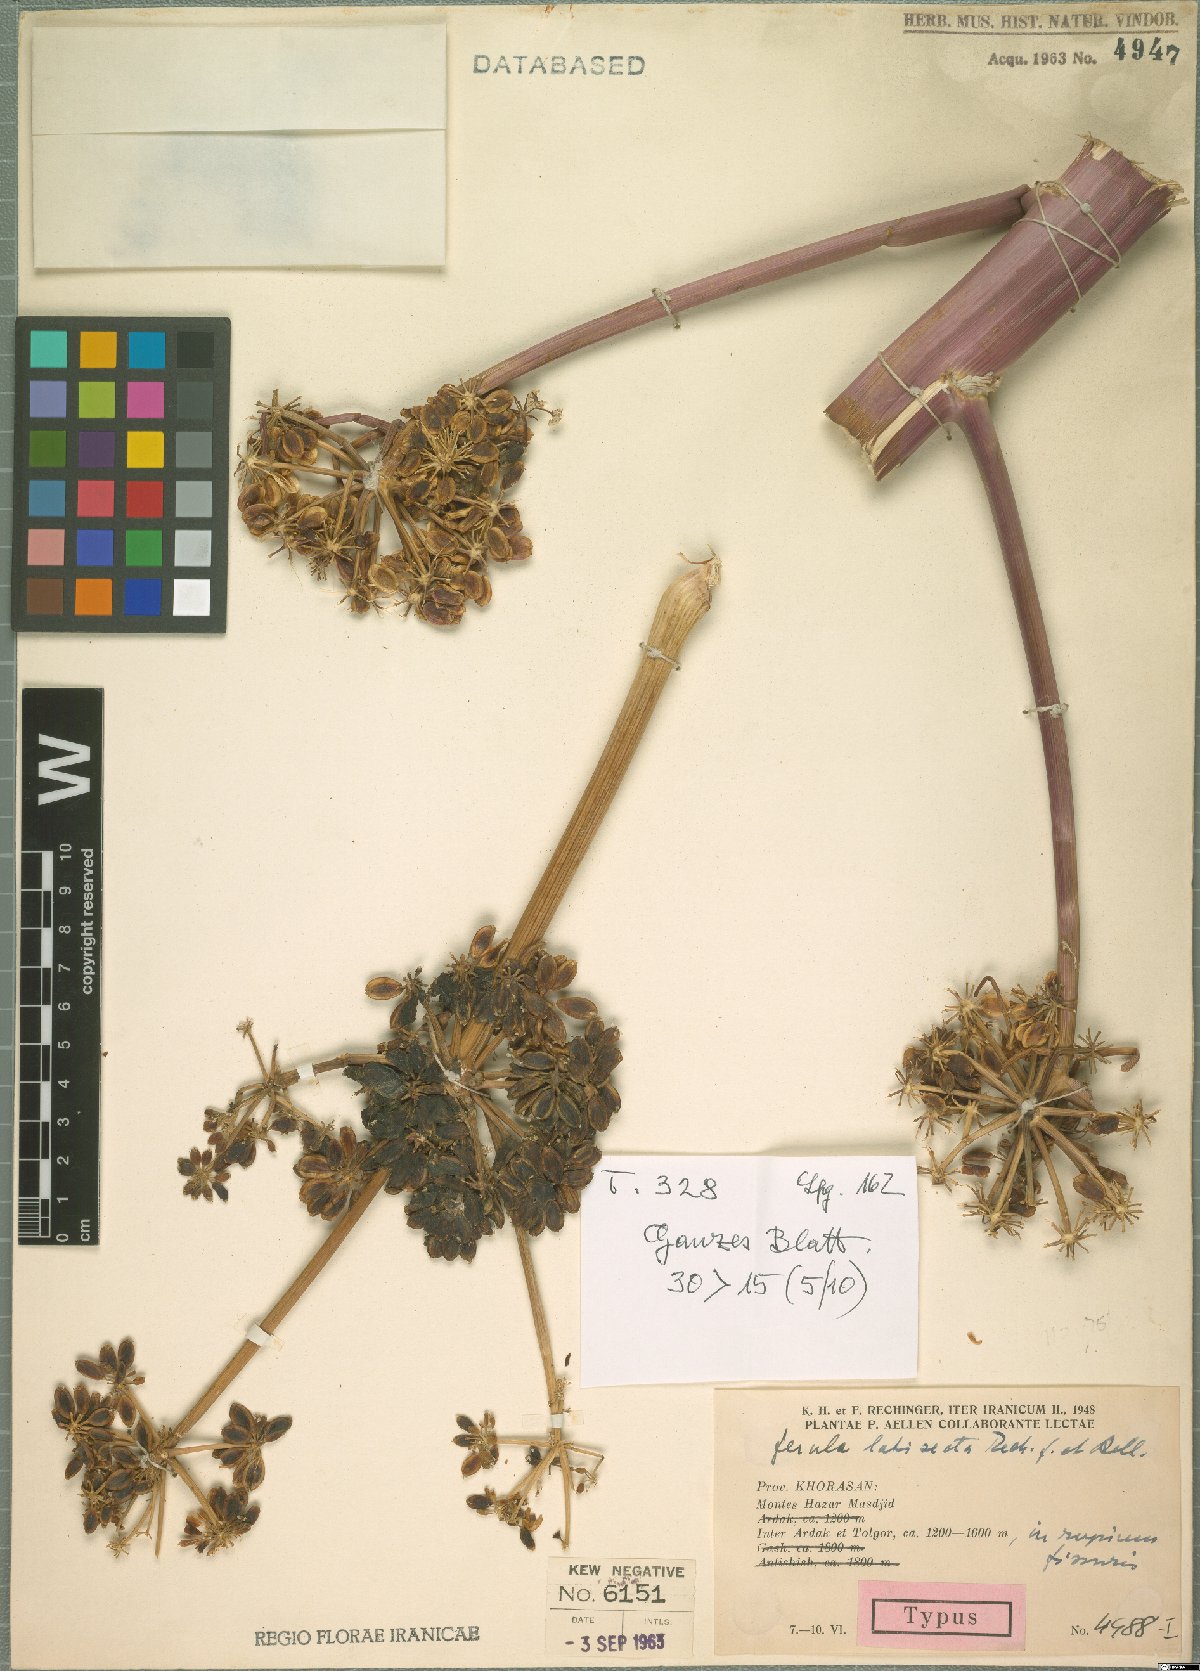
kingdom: Plantae
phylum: Tracheophyta
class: Magnoliopsida
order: Apiales
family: Apiaceae
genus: Ferula
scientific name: Ferula latisecta
